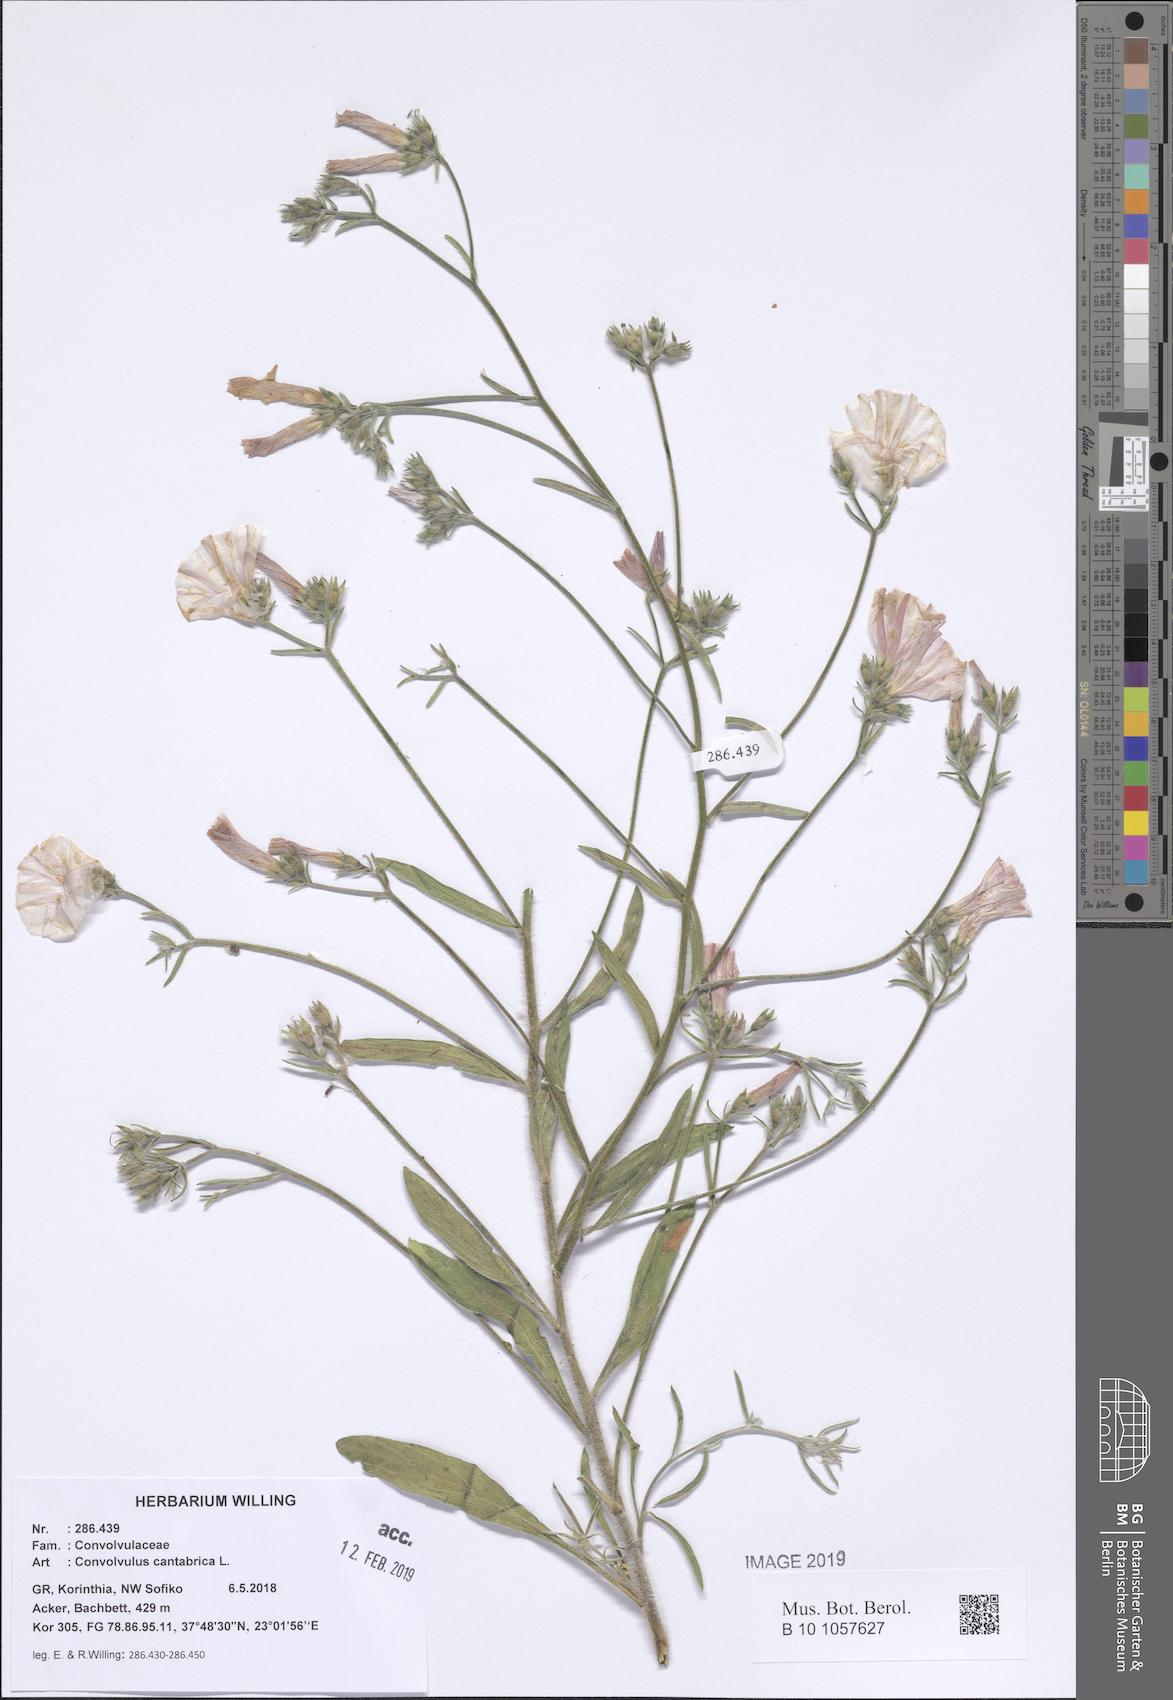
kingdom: Plantae
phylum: Tracheophyta
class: Magnoliopsida
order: Solanales
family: Convolvulaceae
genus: Convolvulus
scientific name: Convolvulus cantabrica
